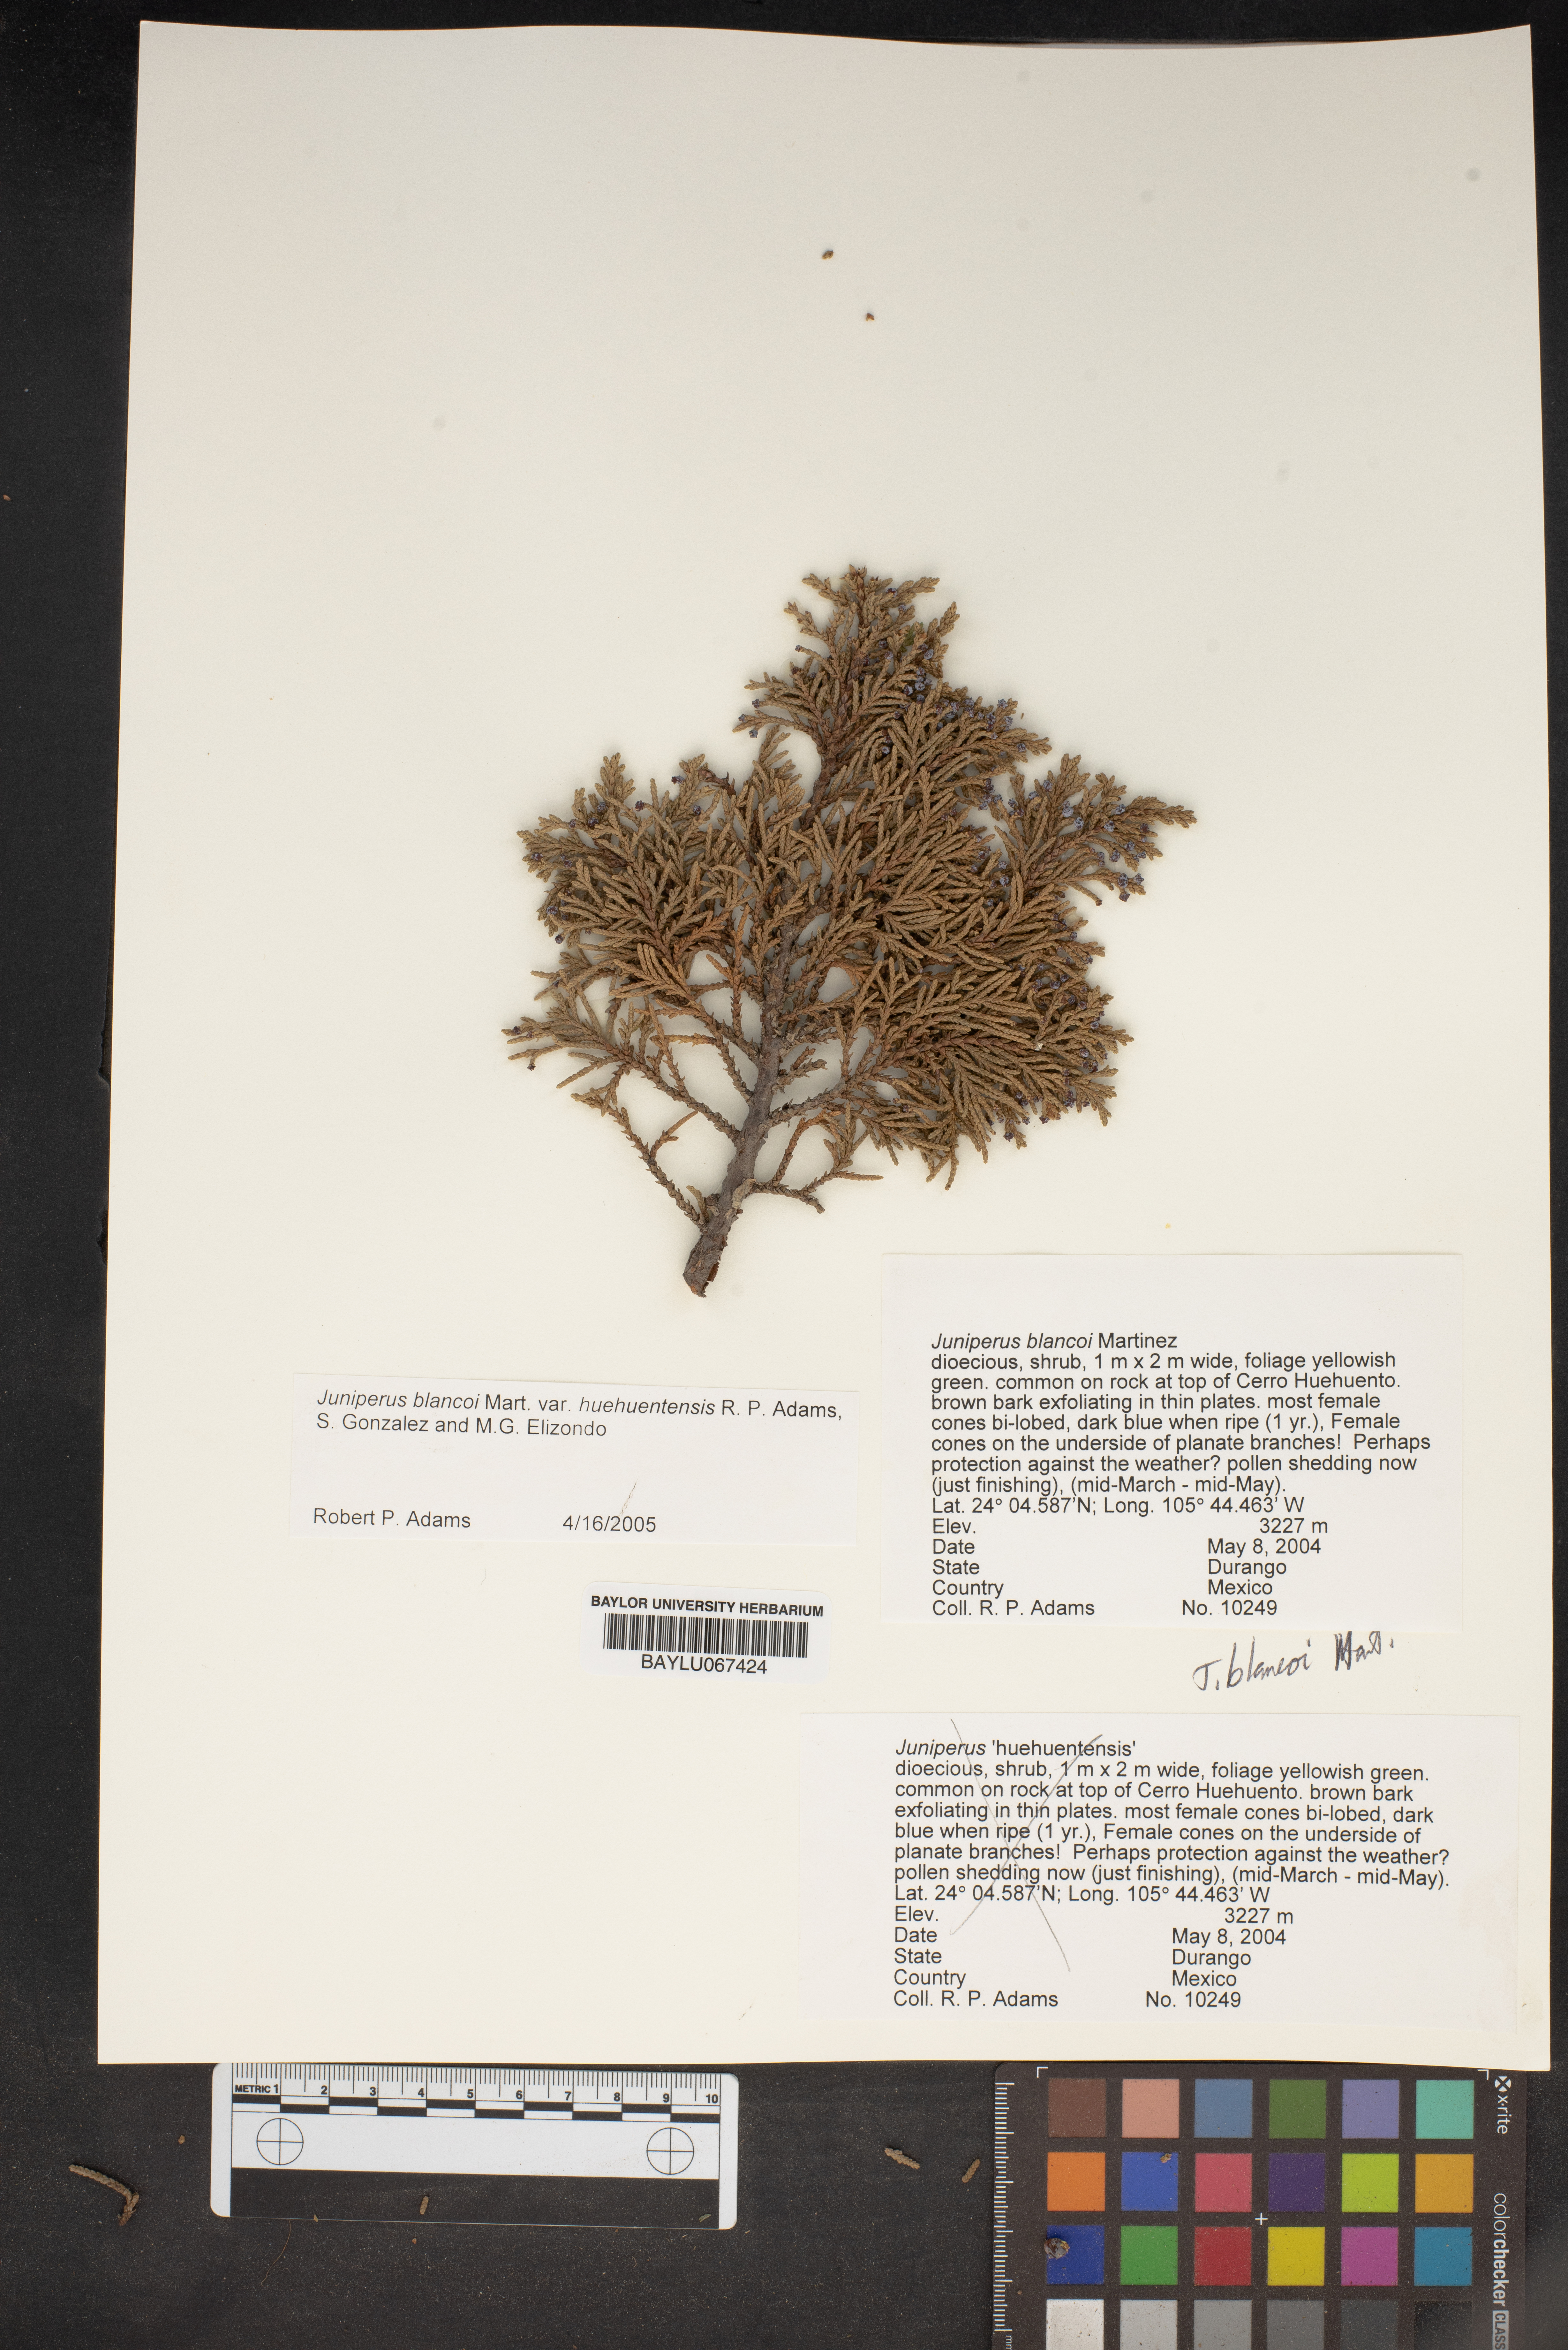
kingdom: Plantae
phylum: Tracheophyta
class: Pinopsida
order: Pinales
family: Cupressaceae
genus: Juniperus
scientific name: Juniperus blancoi
